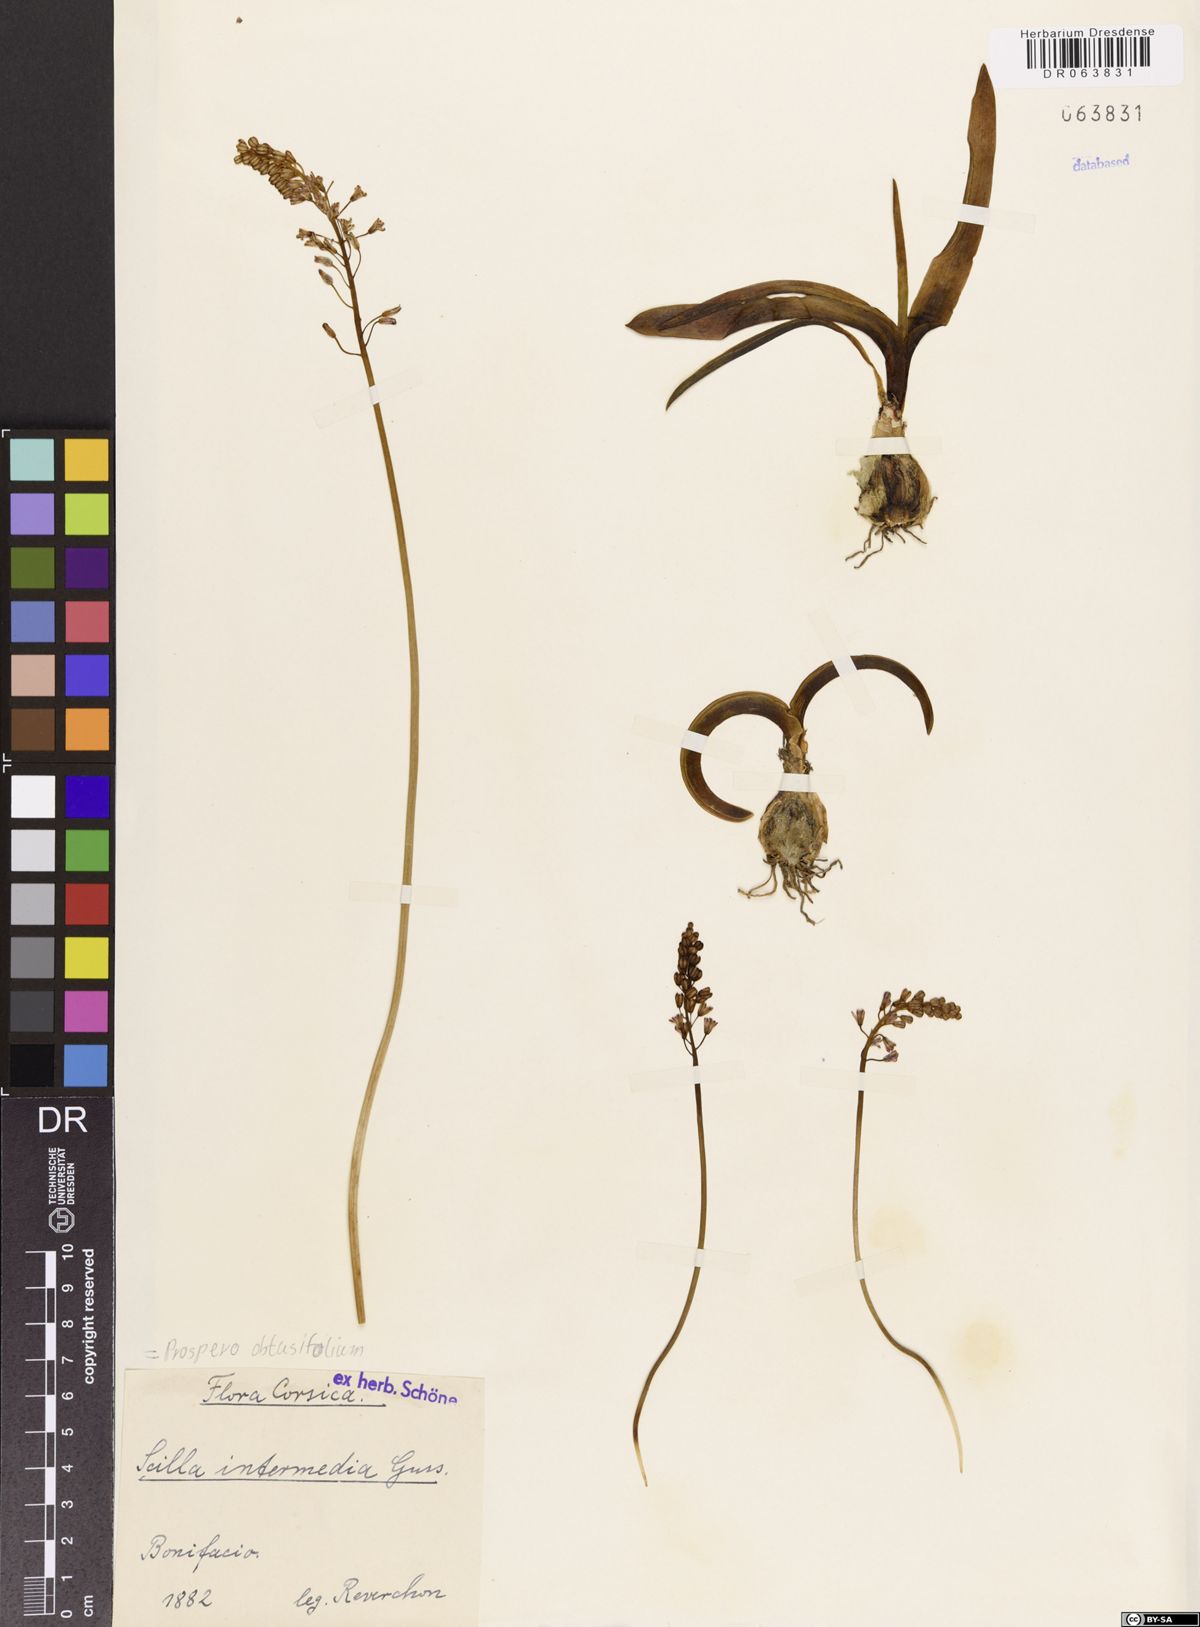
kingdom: Plantae
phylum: Tracheophyta
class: Liliopsida
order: Asparagales
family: Asparagaceae
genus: Prospero
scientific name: Prospero obtusifolium
